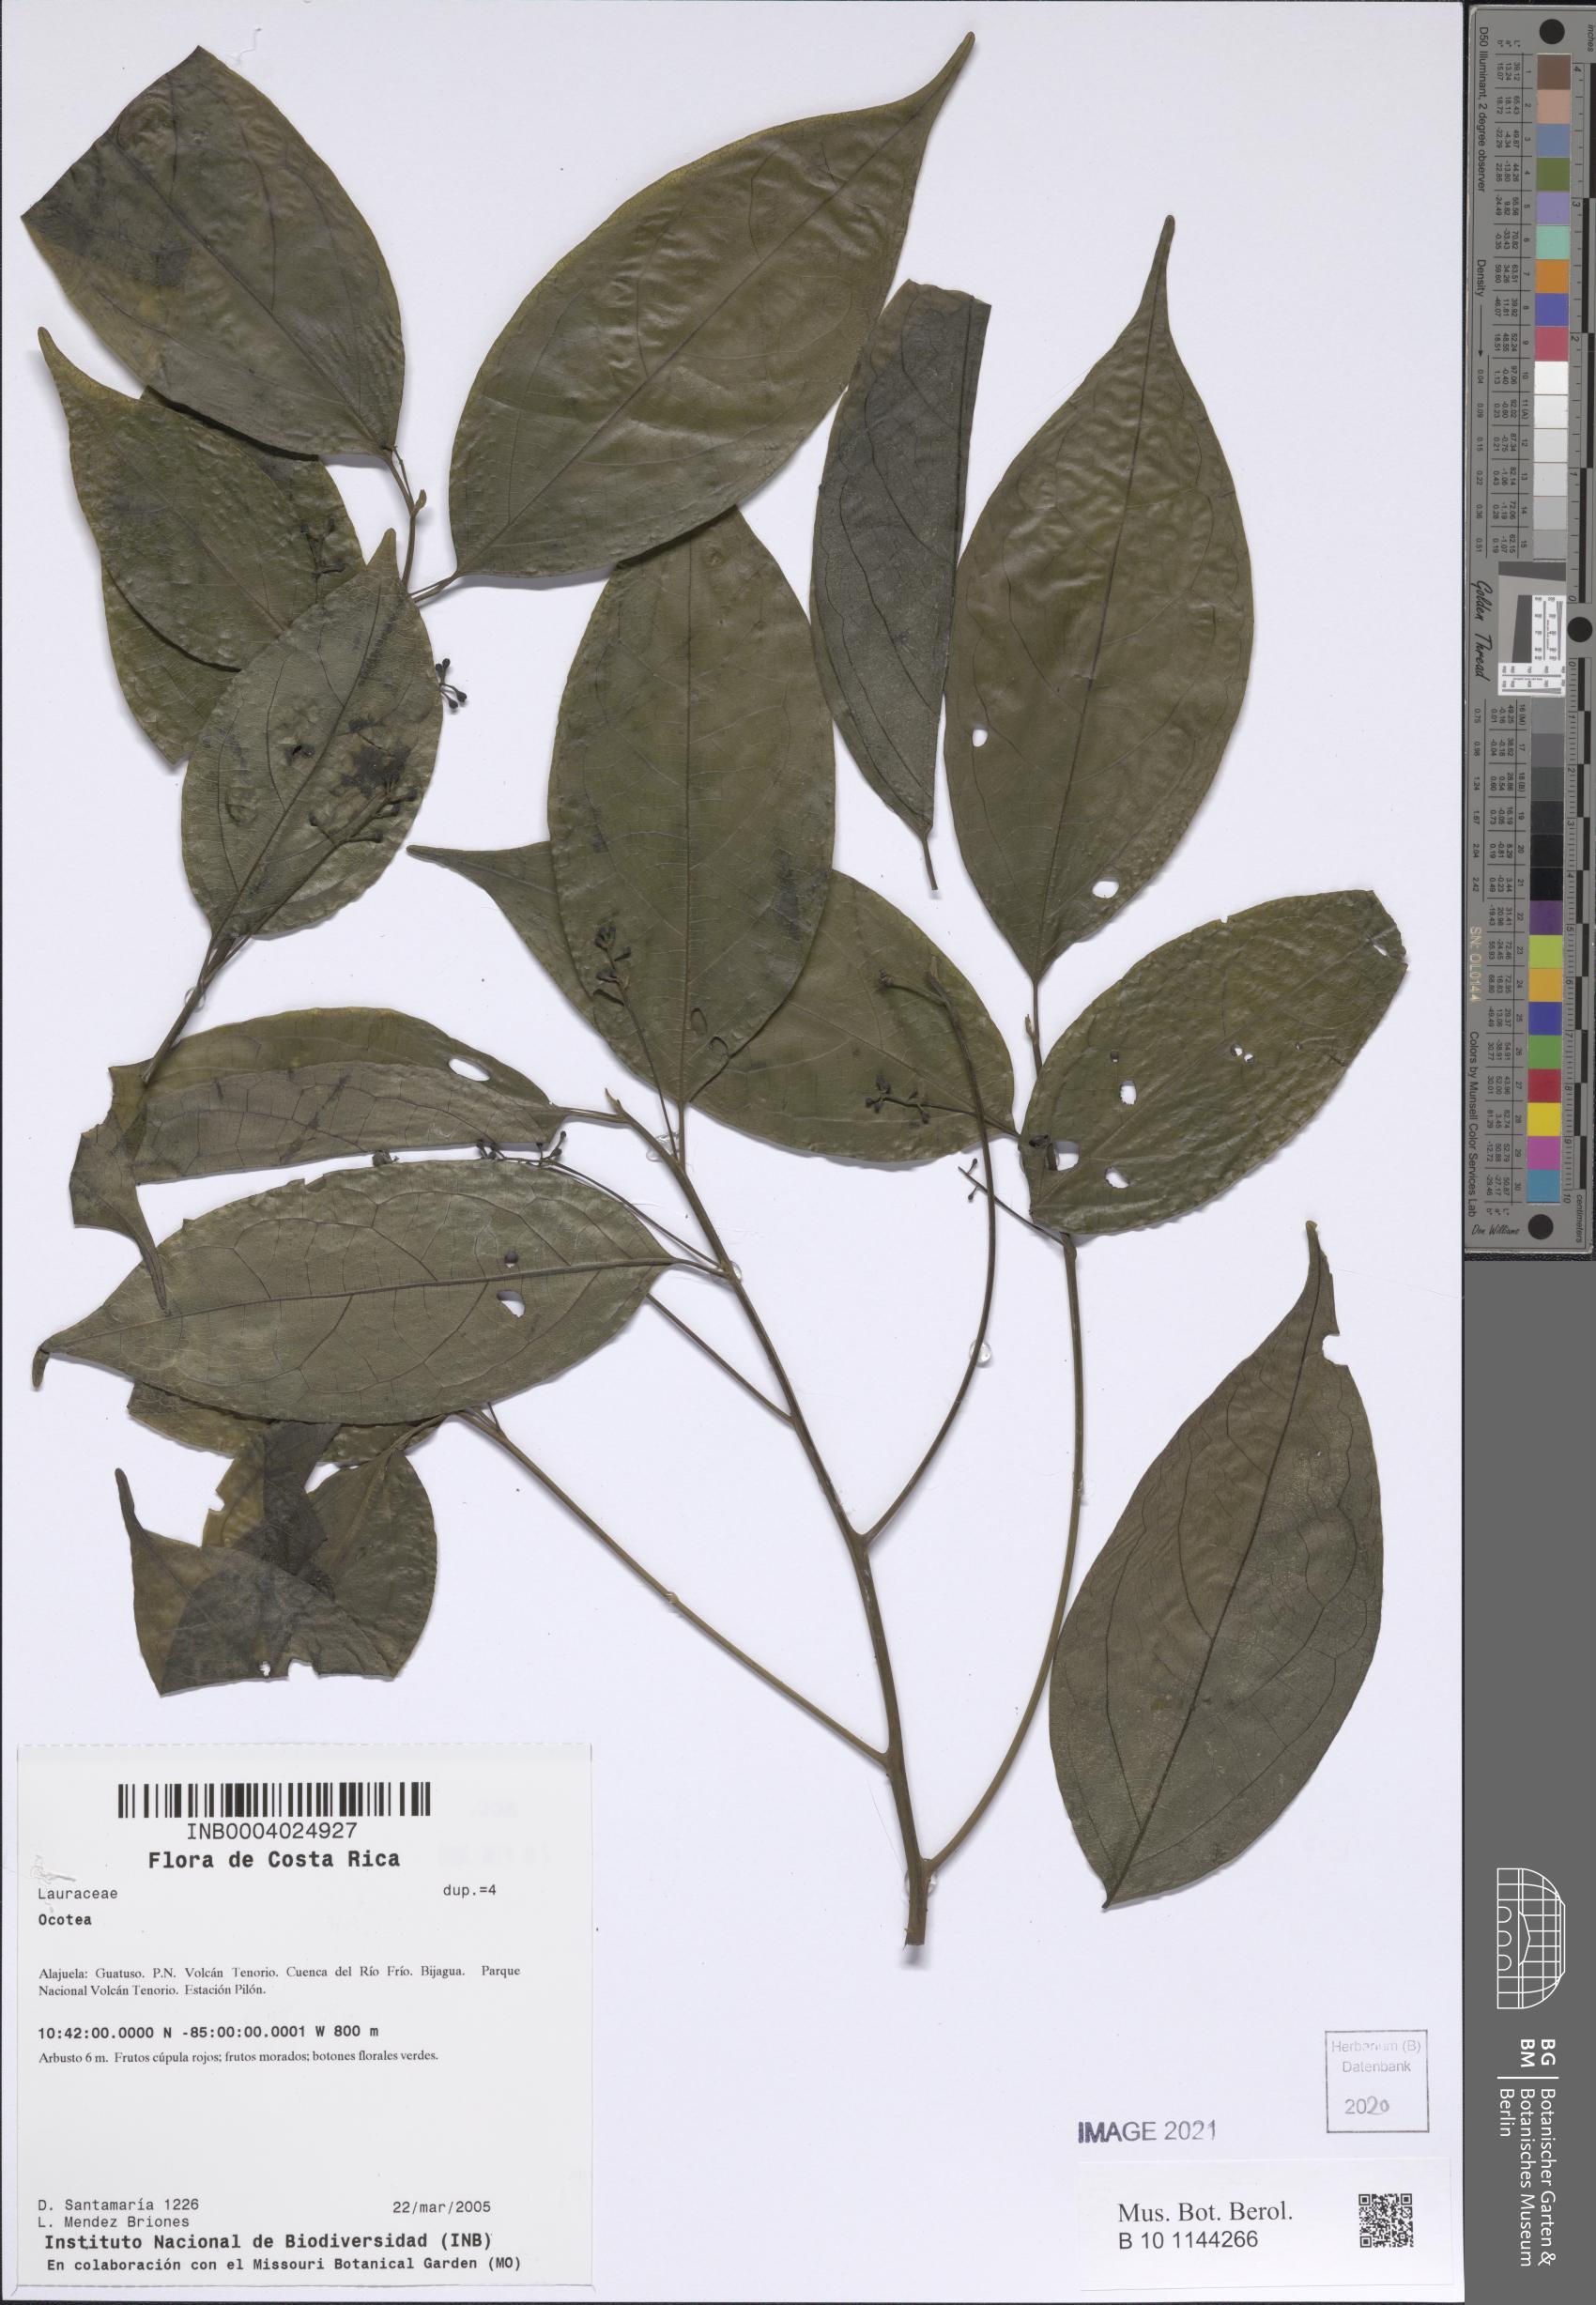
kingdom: Plantae
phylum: Tracheophyta
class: Magnoliopsida
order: Laurales
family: Lauraceae
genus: Ocotea
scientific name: Ocotea
